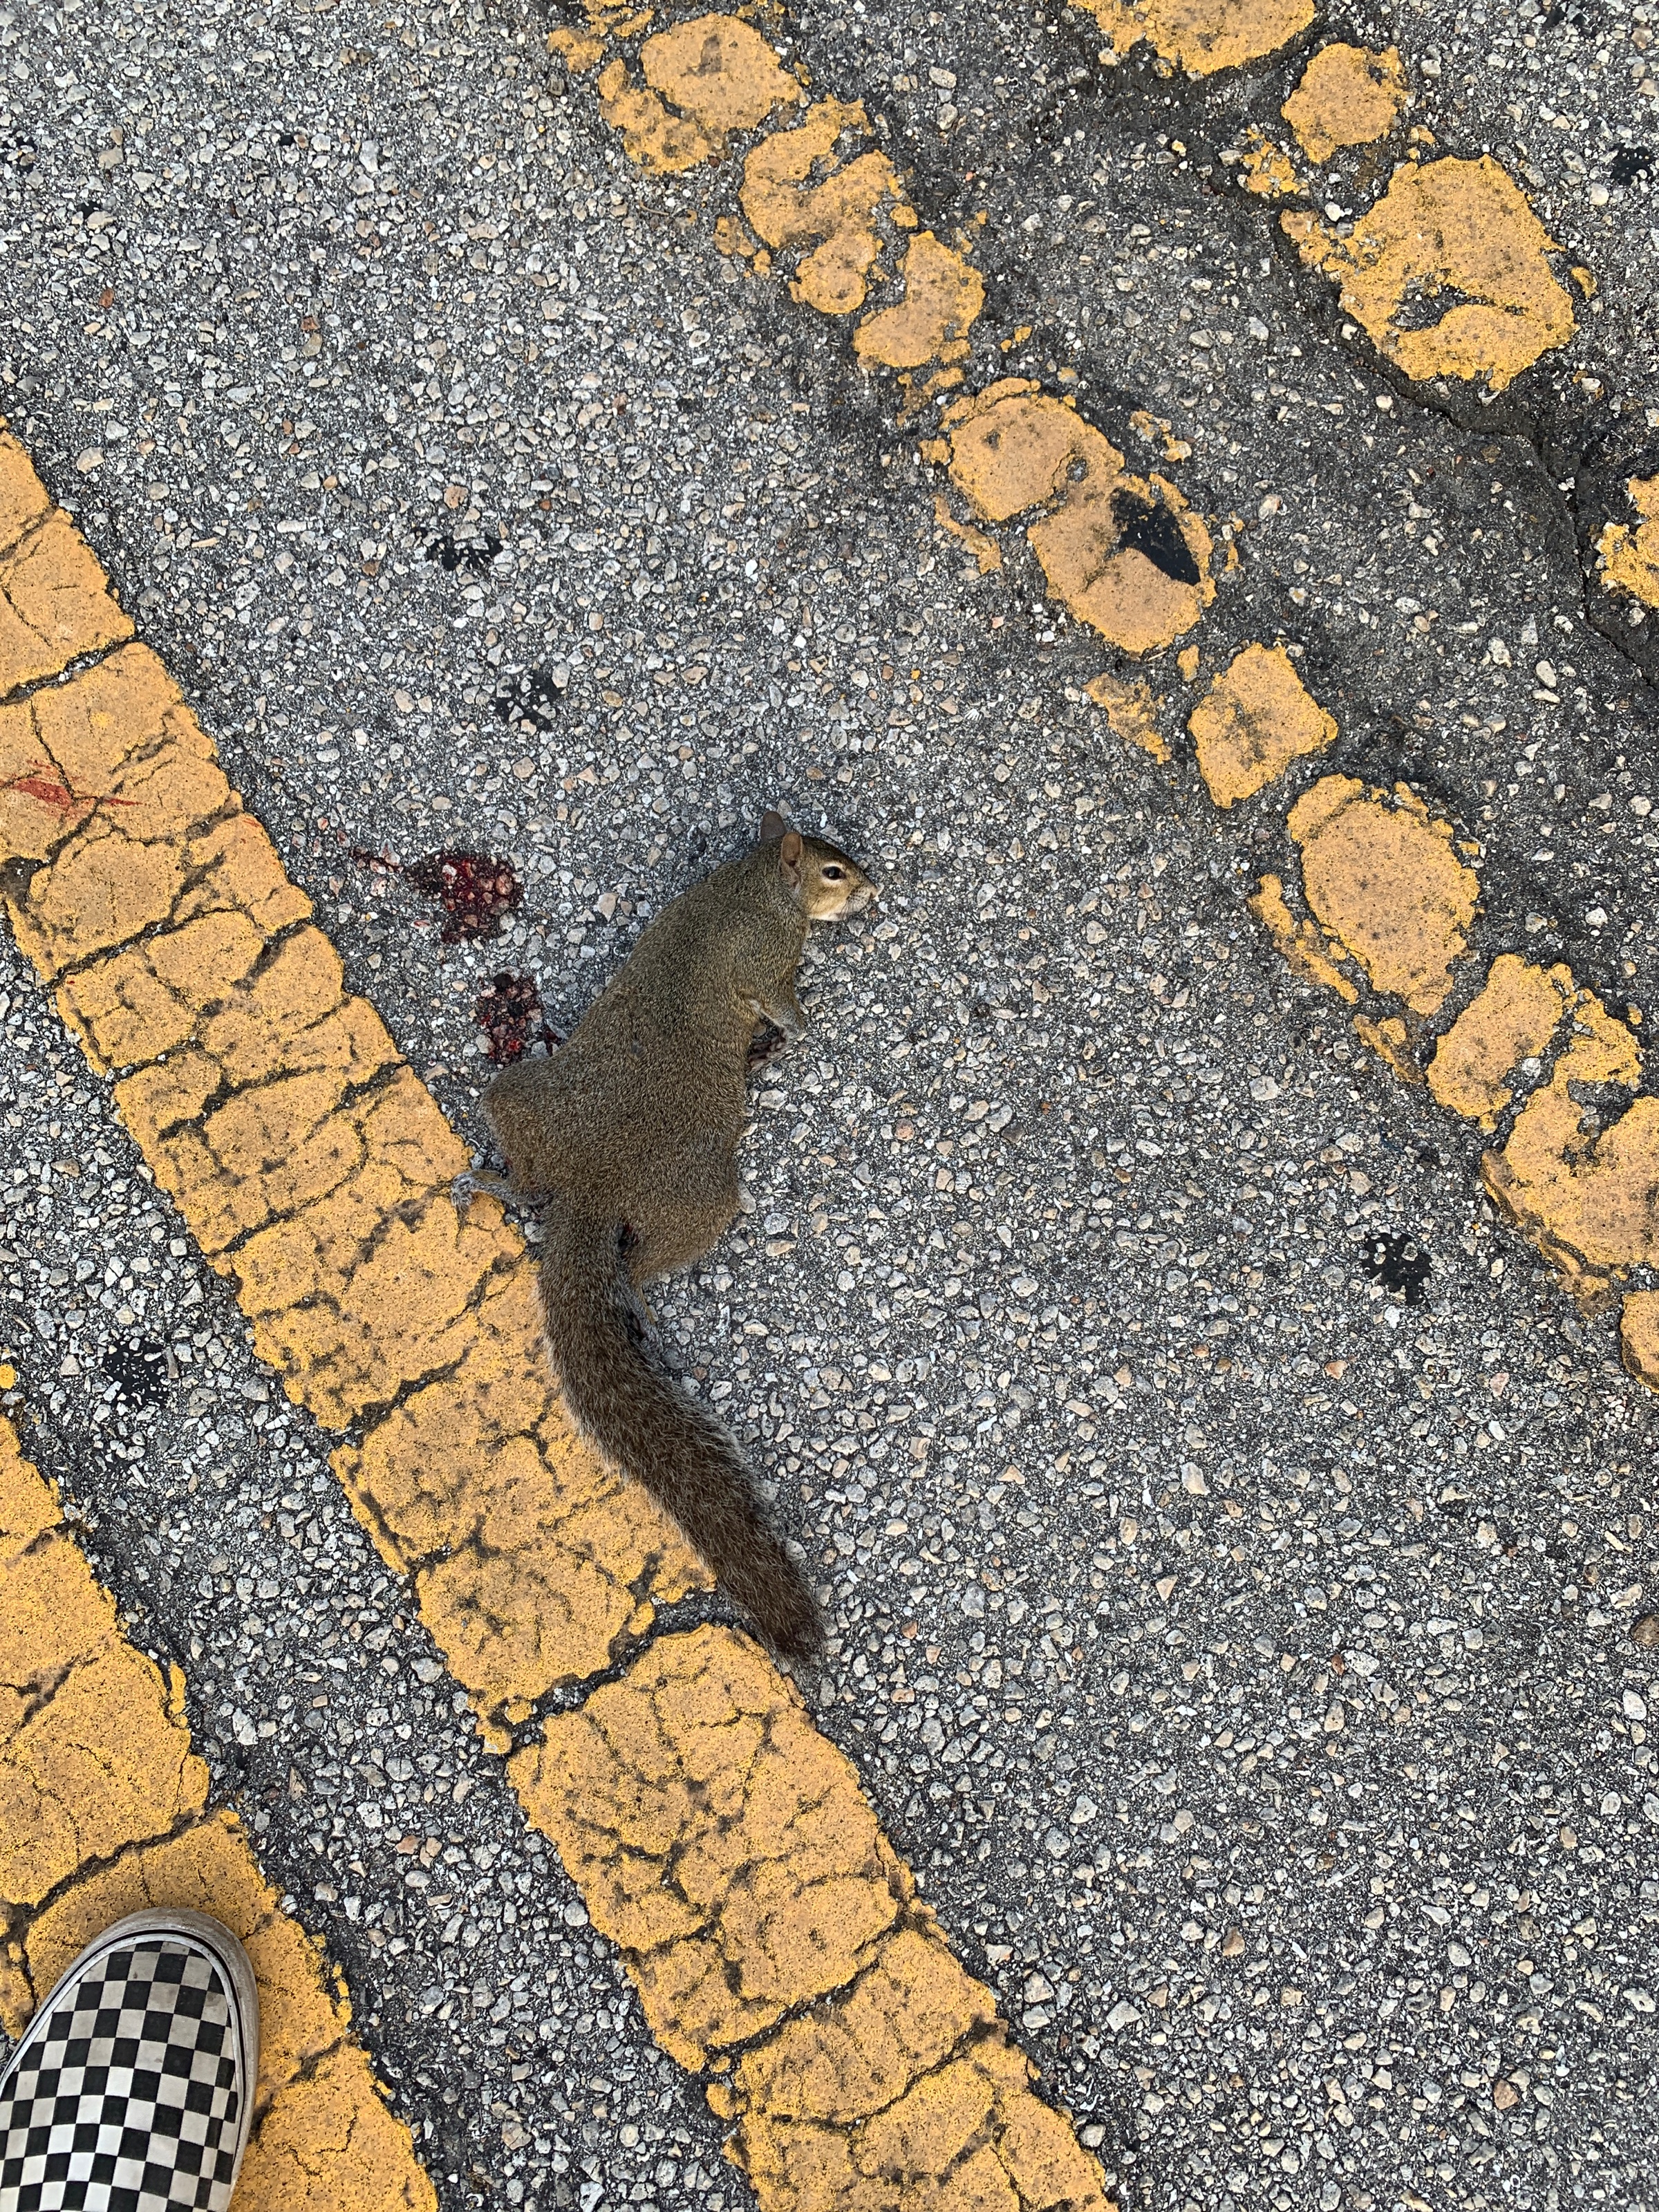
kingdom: Animalia
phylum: Chordata
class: Mammalia
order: Rodentia
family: Sciuridae
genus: Sciurus
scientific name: Sciurus carolinensis
